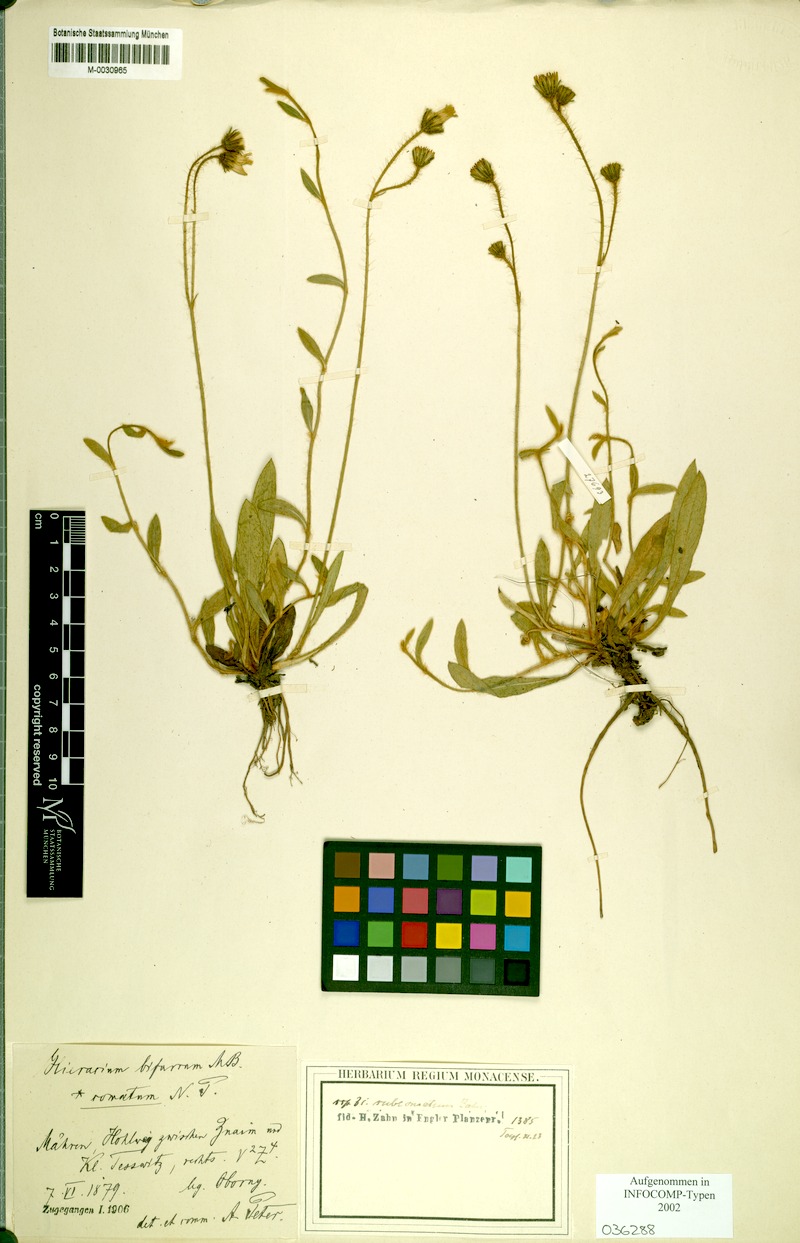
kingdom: Plantae
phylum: Tracheophyta
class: Magnoliopsida
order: Asterales
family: Asteraceae
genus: Pilosella
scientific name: Pilosella bifurca
